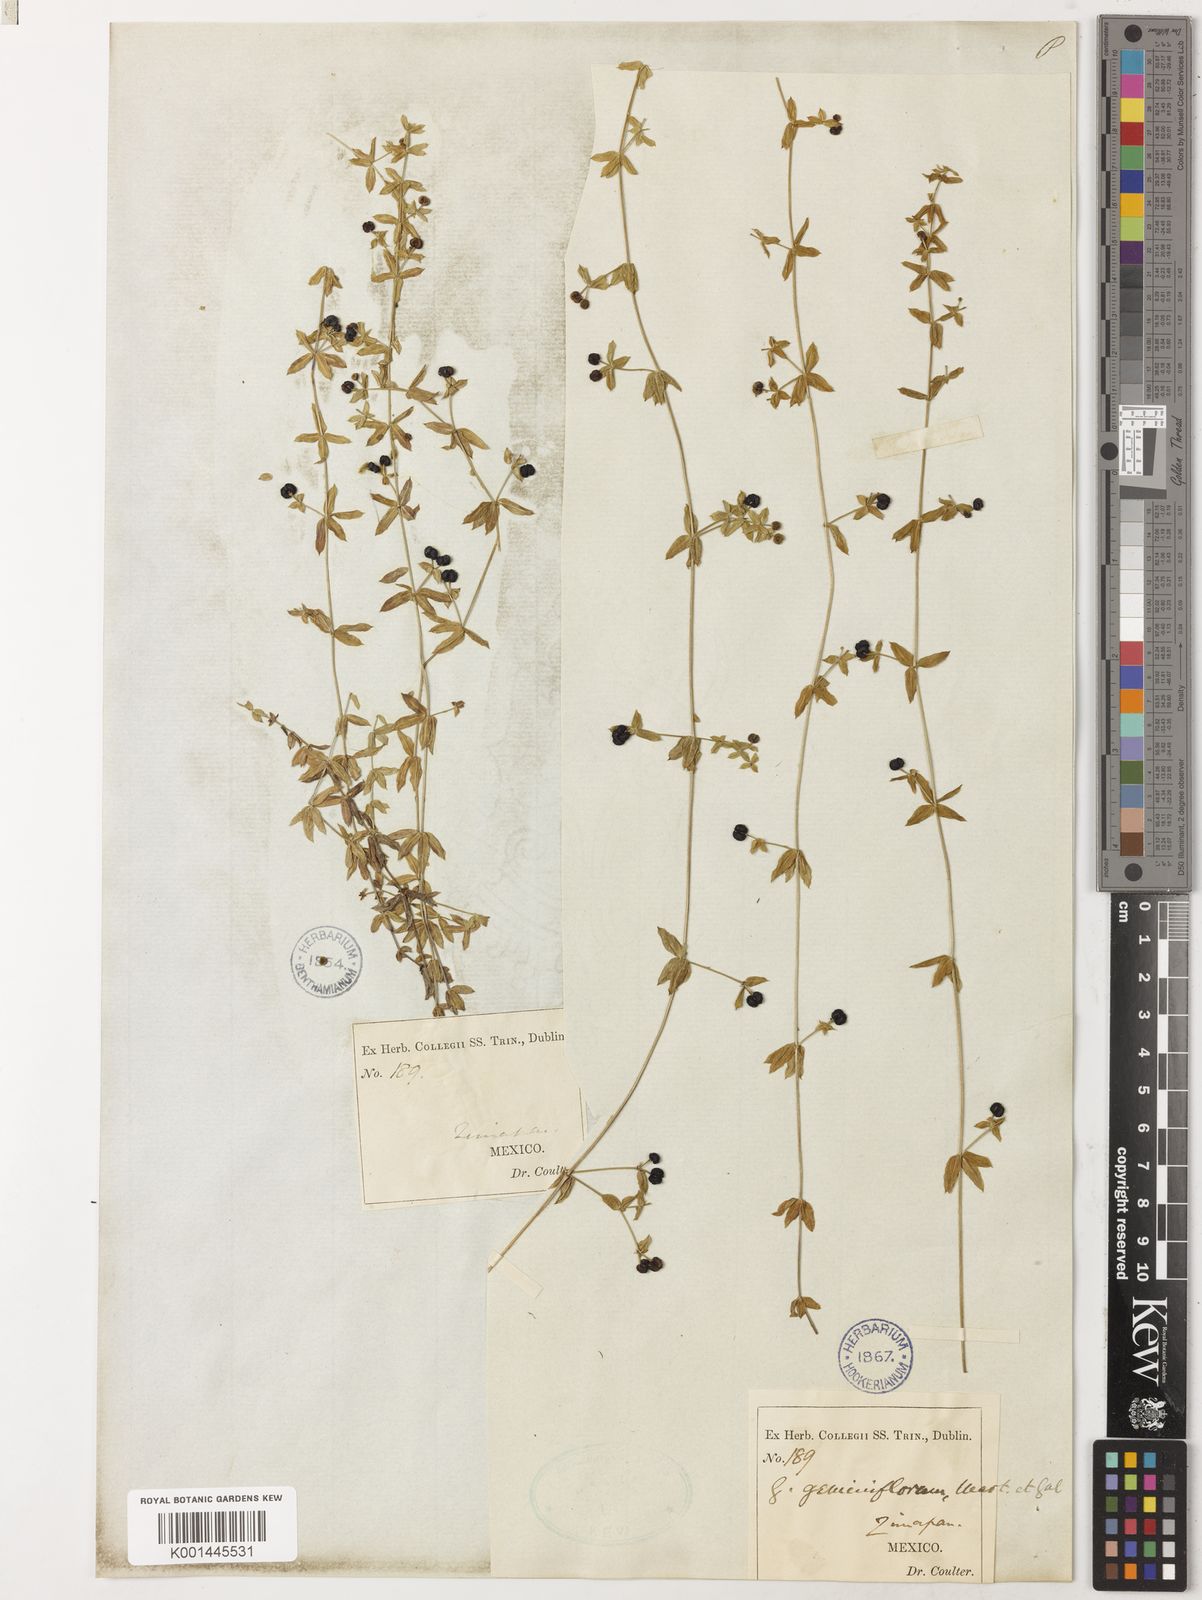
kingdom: Plantae
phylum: Tracheophyta
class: Magnoliopsida
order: Gentianales
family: Rubiaceae
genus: Galium
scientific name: Galium aschenbornii
